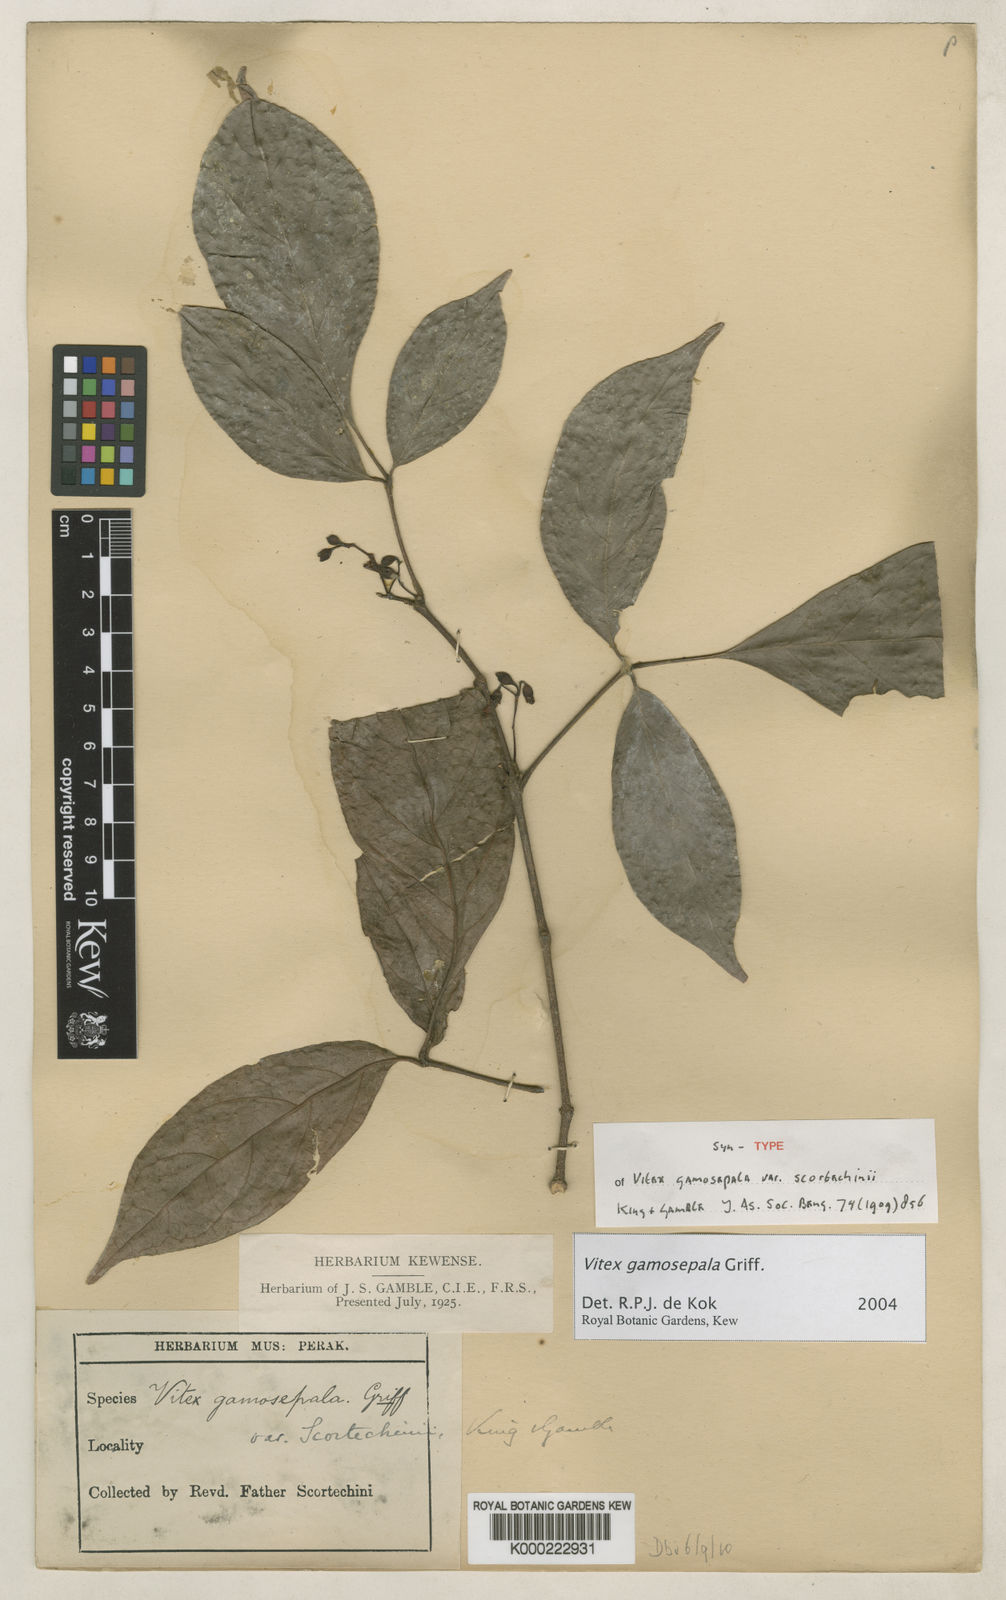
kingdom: Plantae
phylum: Tracheophyta
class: Magnoliopsida
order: Lamiales
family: Lamiaceae
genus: Vitex
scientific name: Vitex gamosepala
